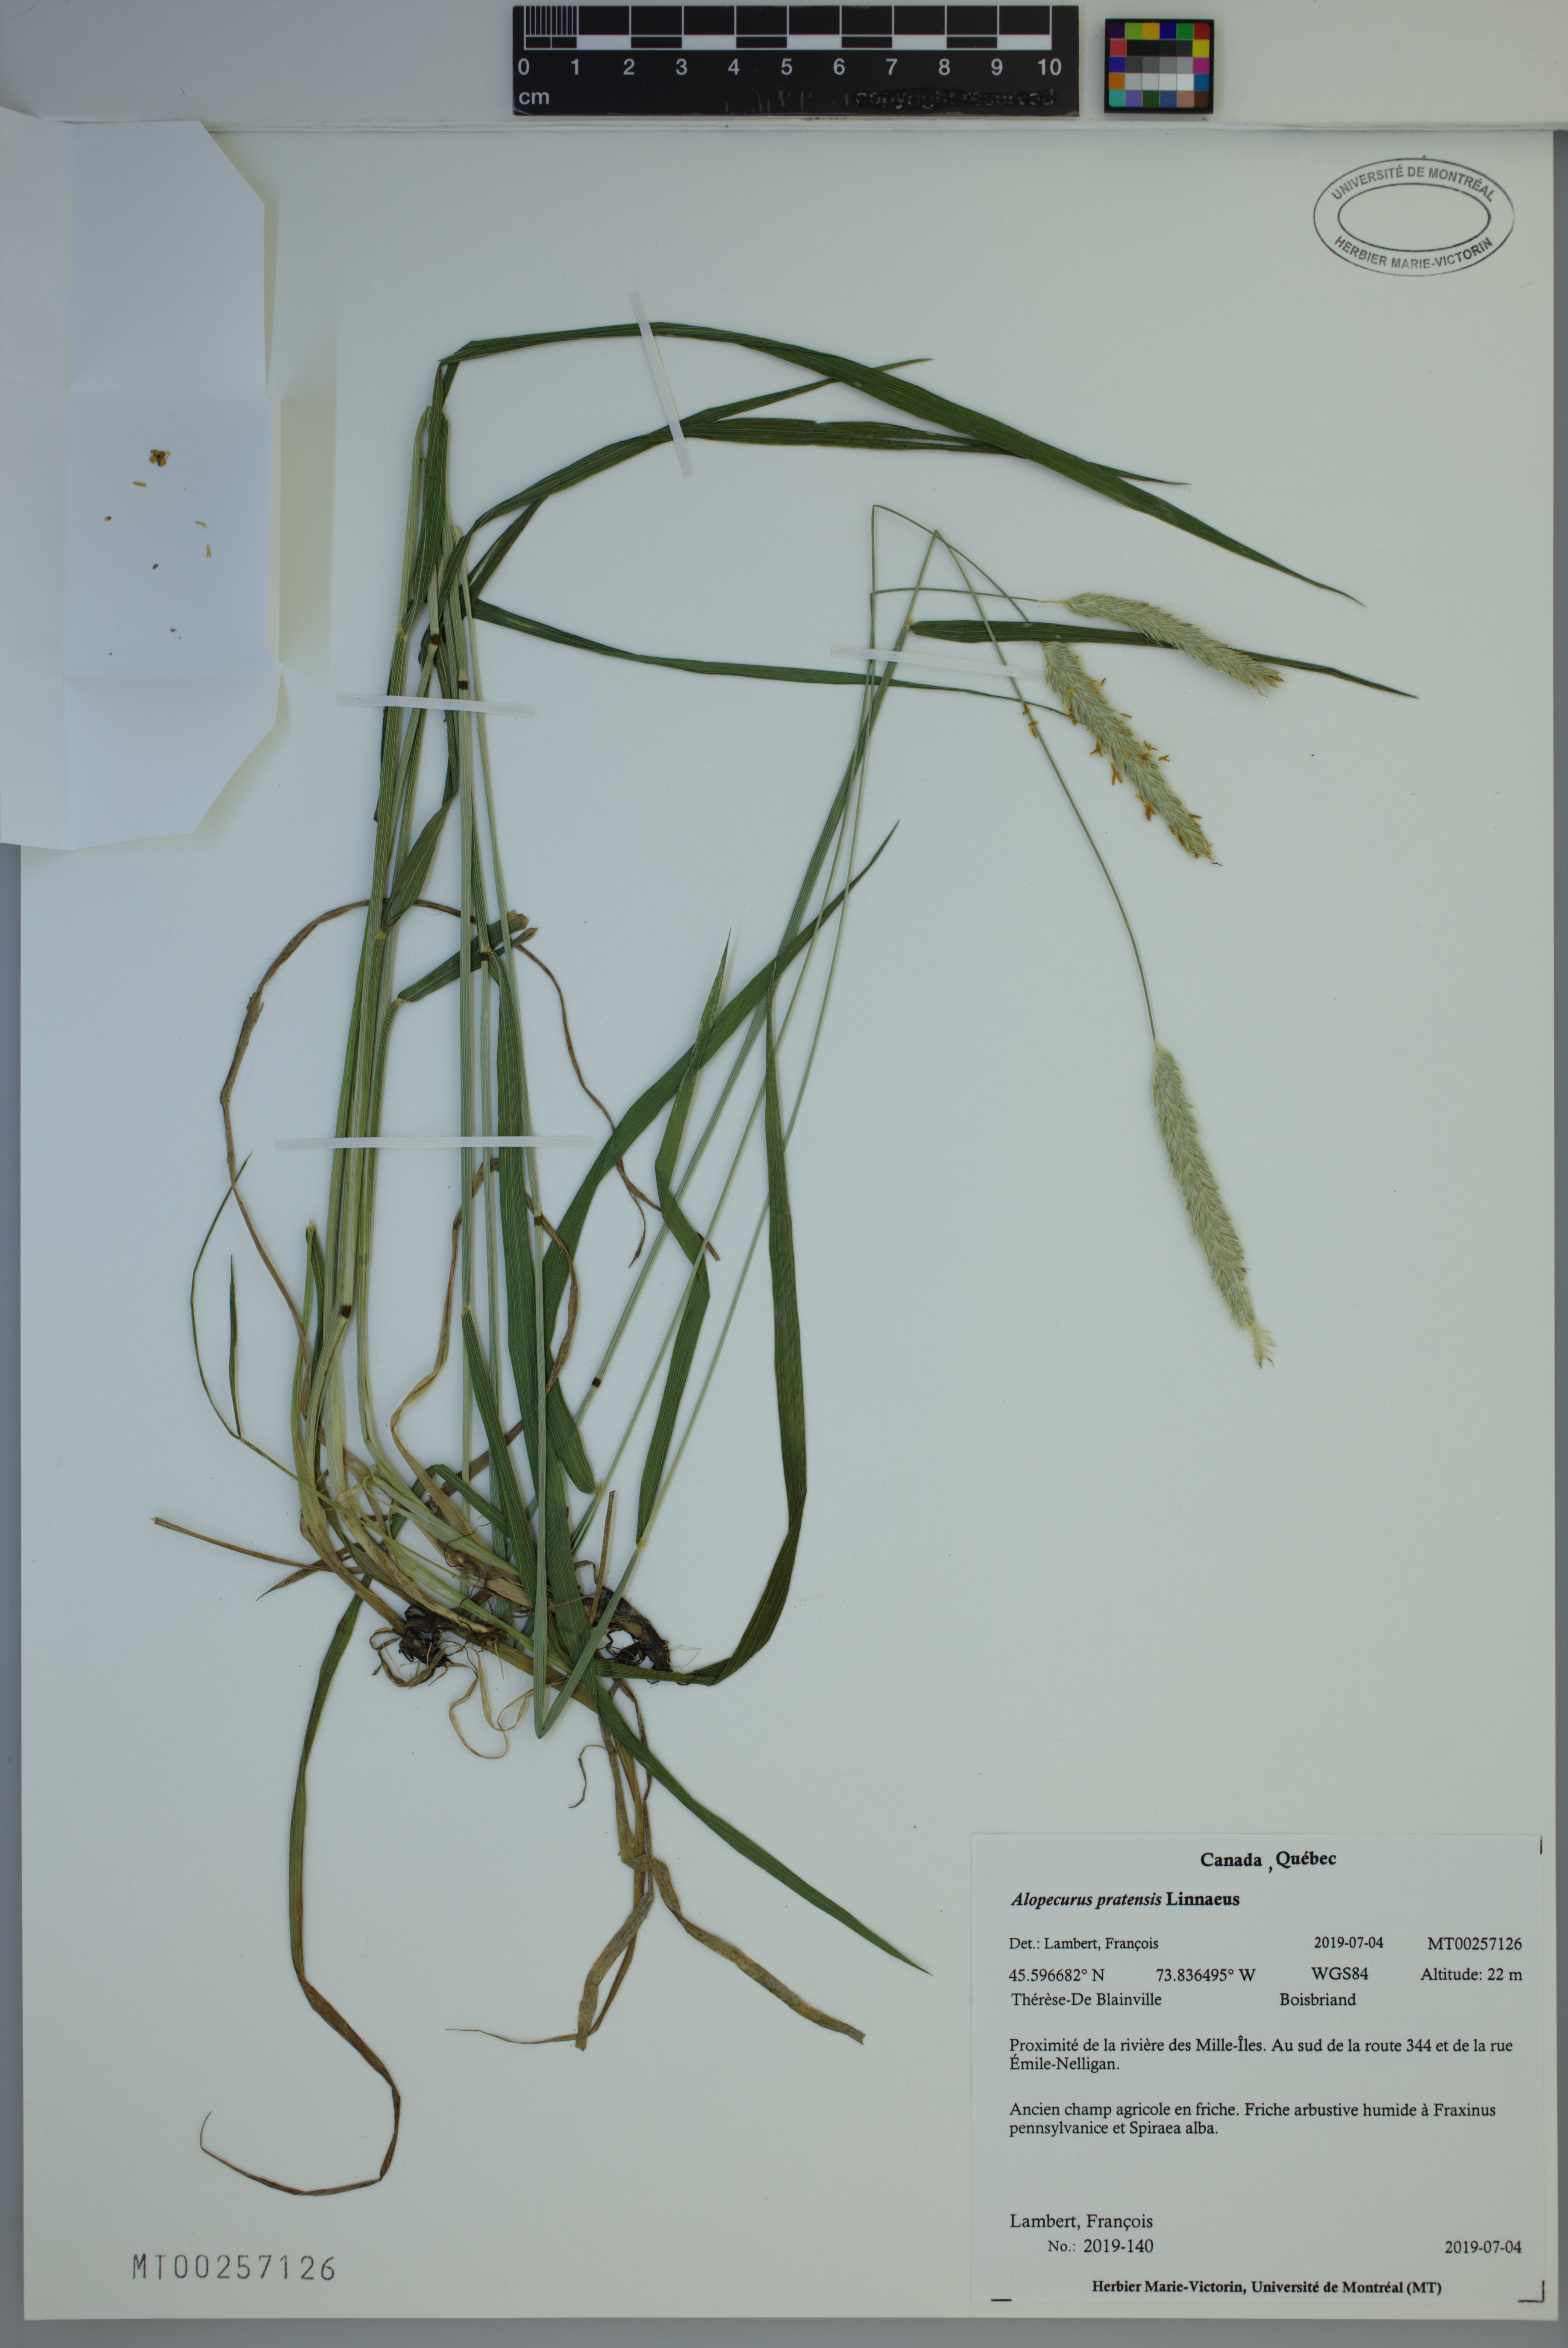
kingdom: Plantae
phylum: Tracheophyta
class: Liliopsida
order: Poales
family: Poaceae
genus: Alopecurus
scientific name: Alopecurus pratensis
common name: Meadow foxtail
